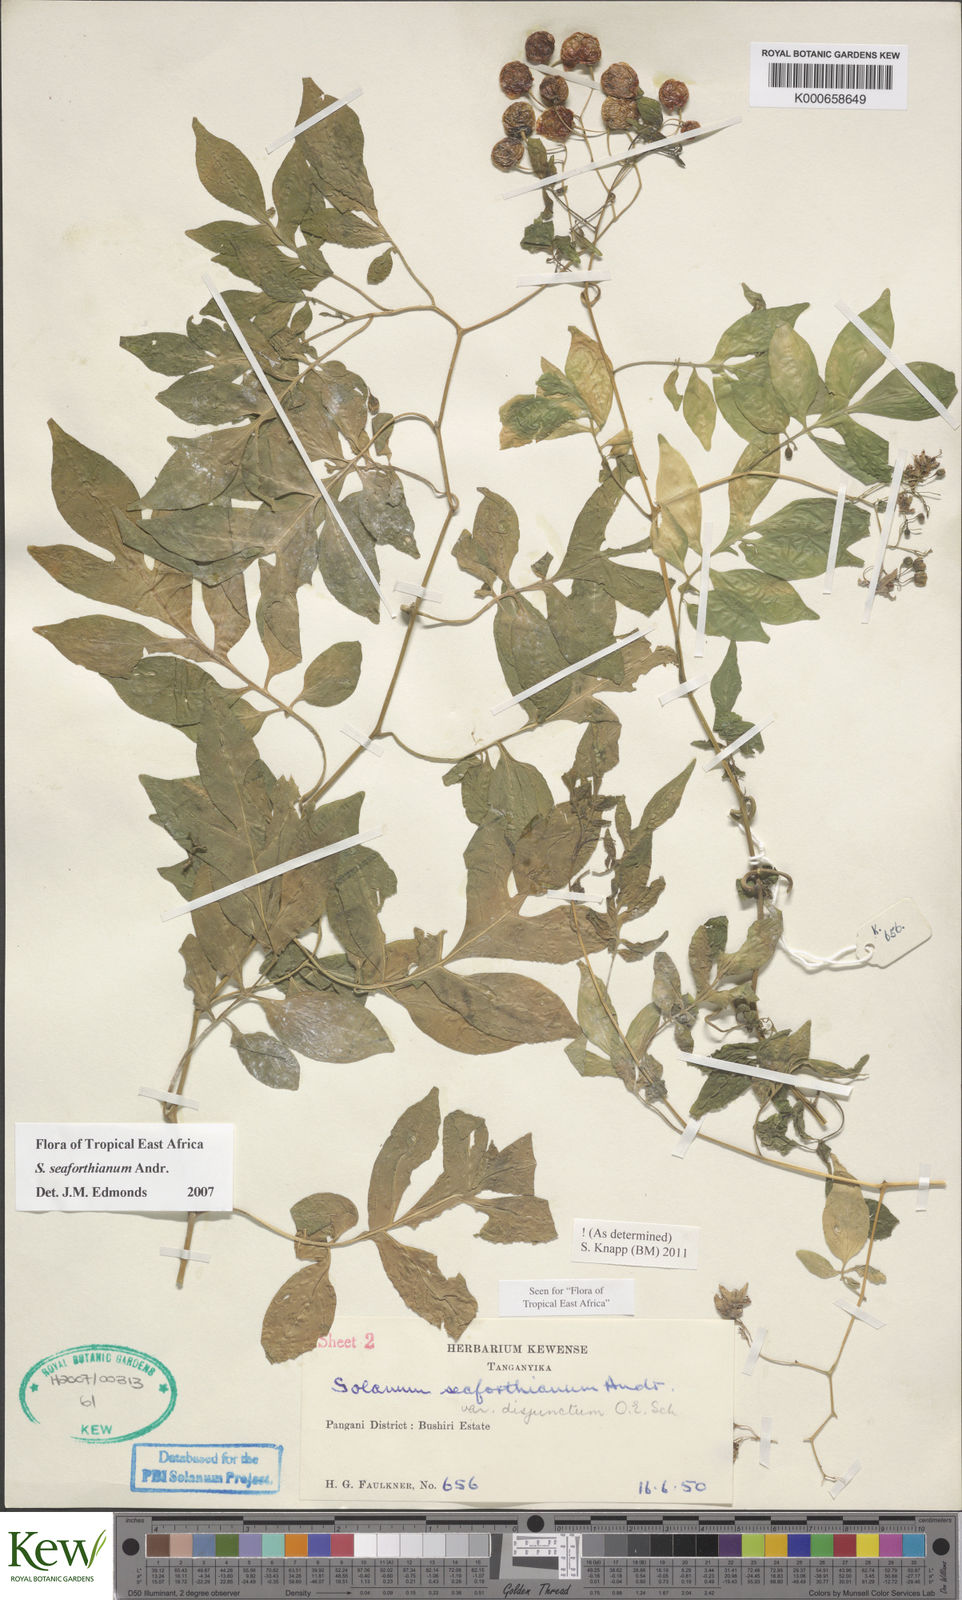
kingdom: Plantae
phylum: Tracheophyta
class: Magnoliopsida
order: Solanales
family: Solanaceae
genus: Solanum
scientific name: Solanum seaforthianum
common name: Brazilian nightshade
